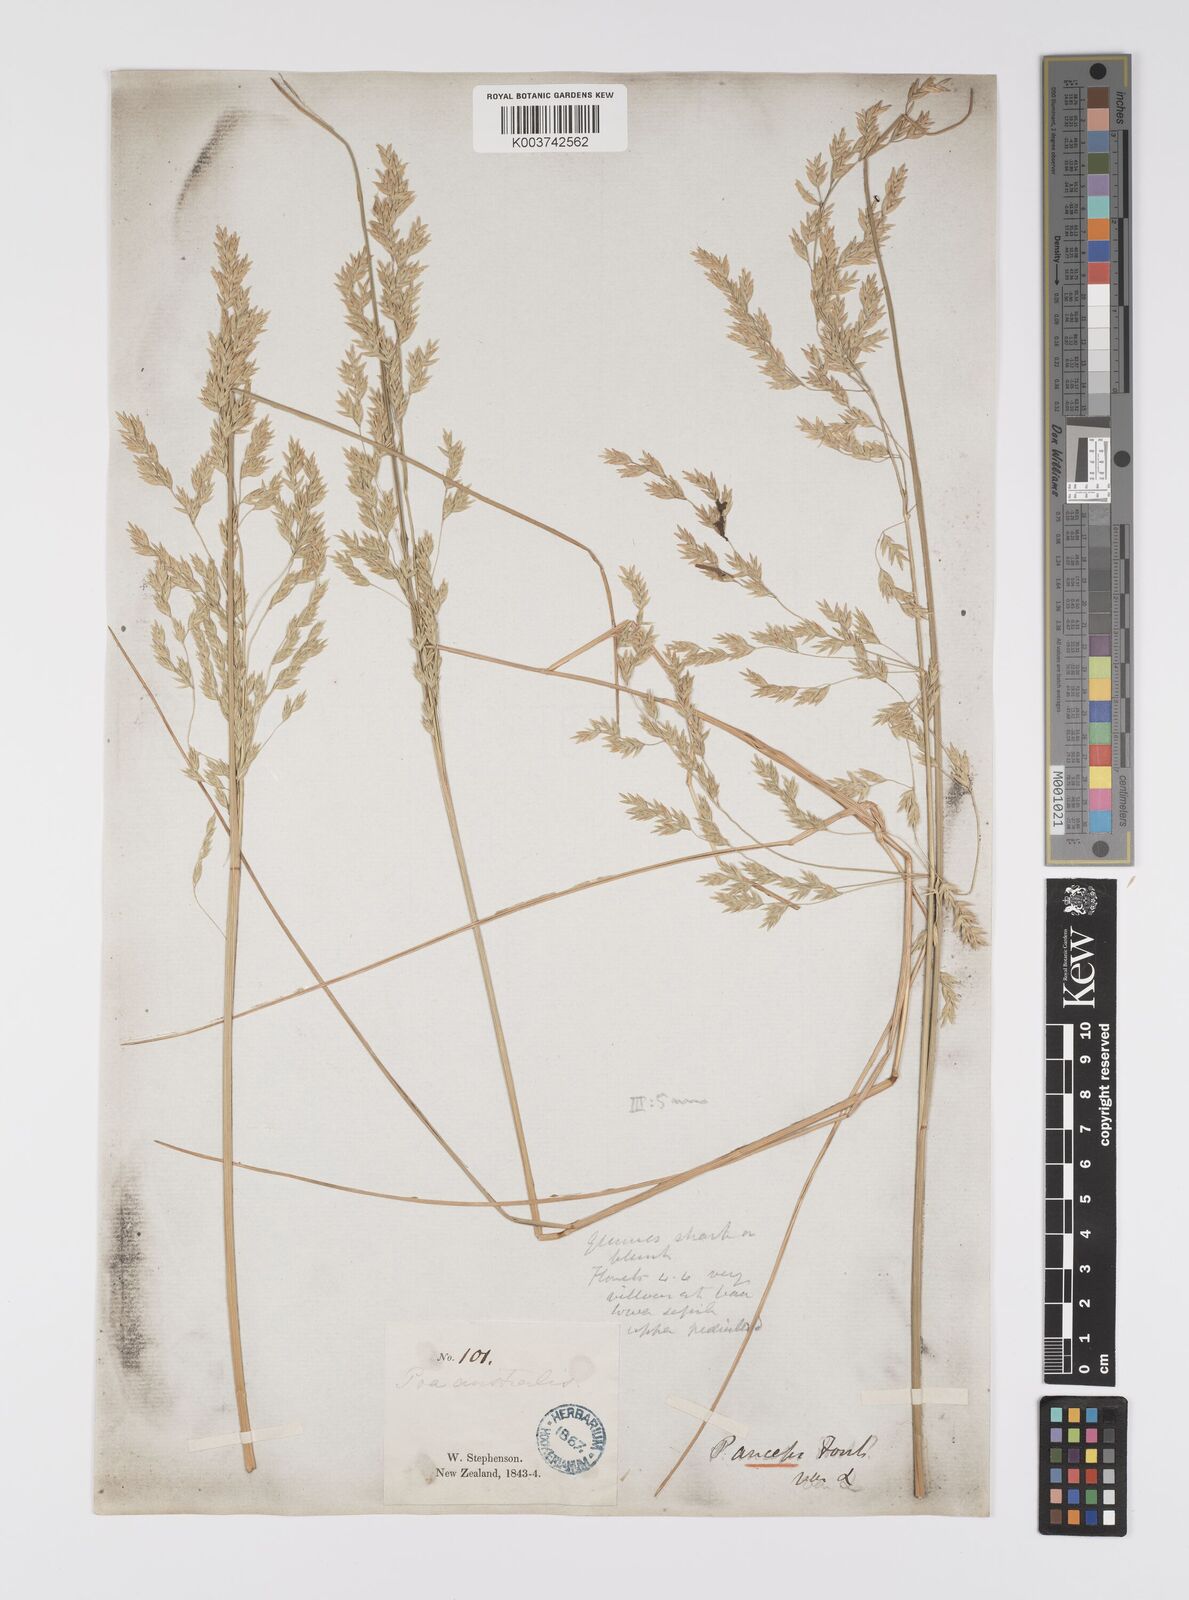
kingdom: Plantae
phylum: Tracheophyta
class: Liliopsida
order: Poales
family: Poaceae
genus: Poa
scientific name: Poa anceps
